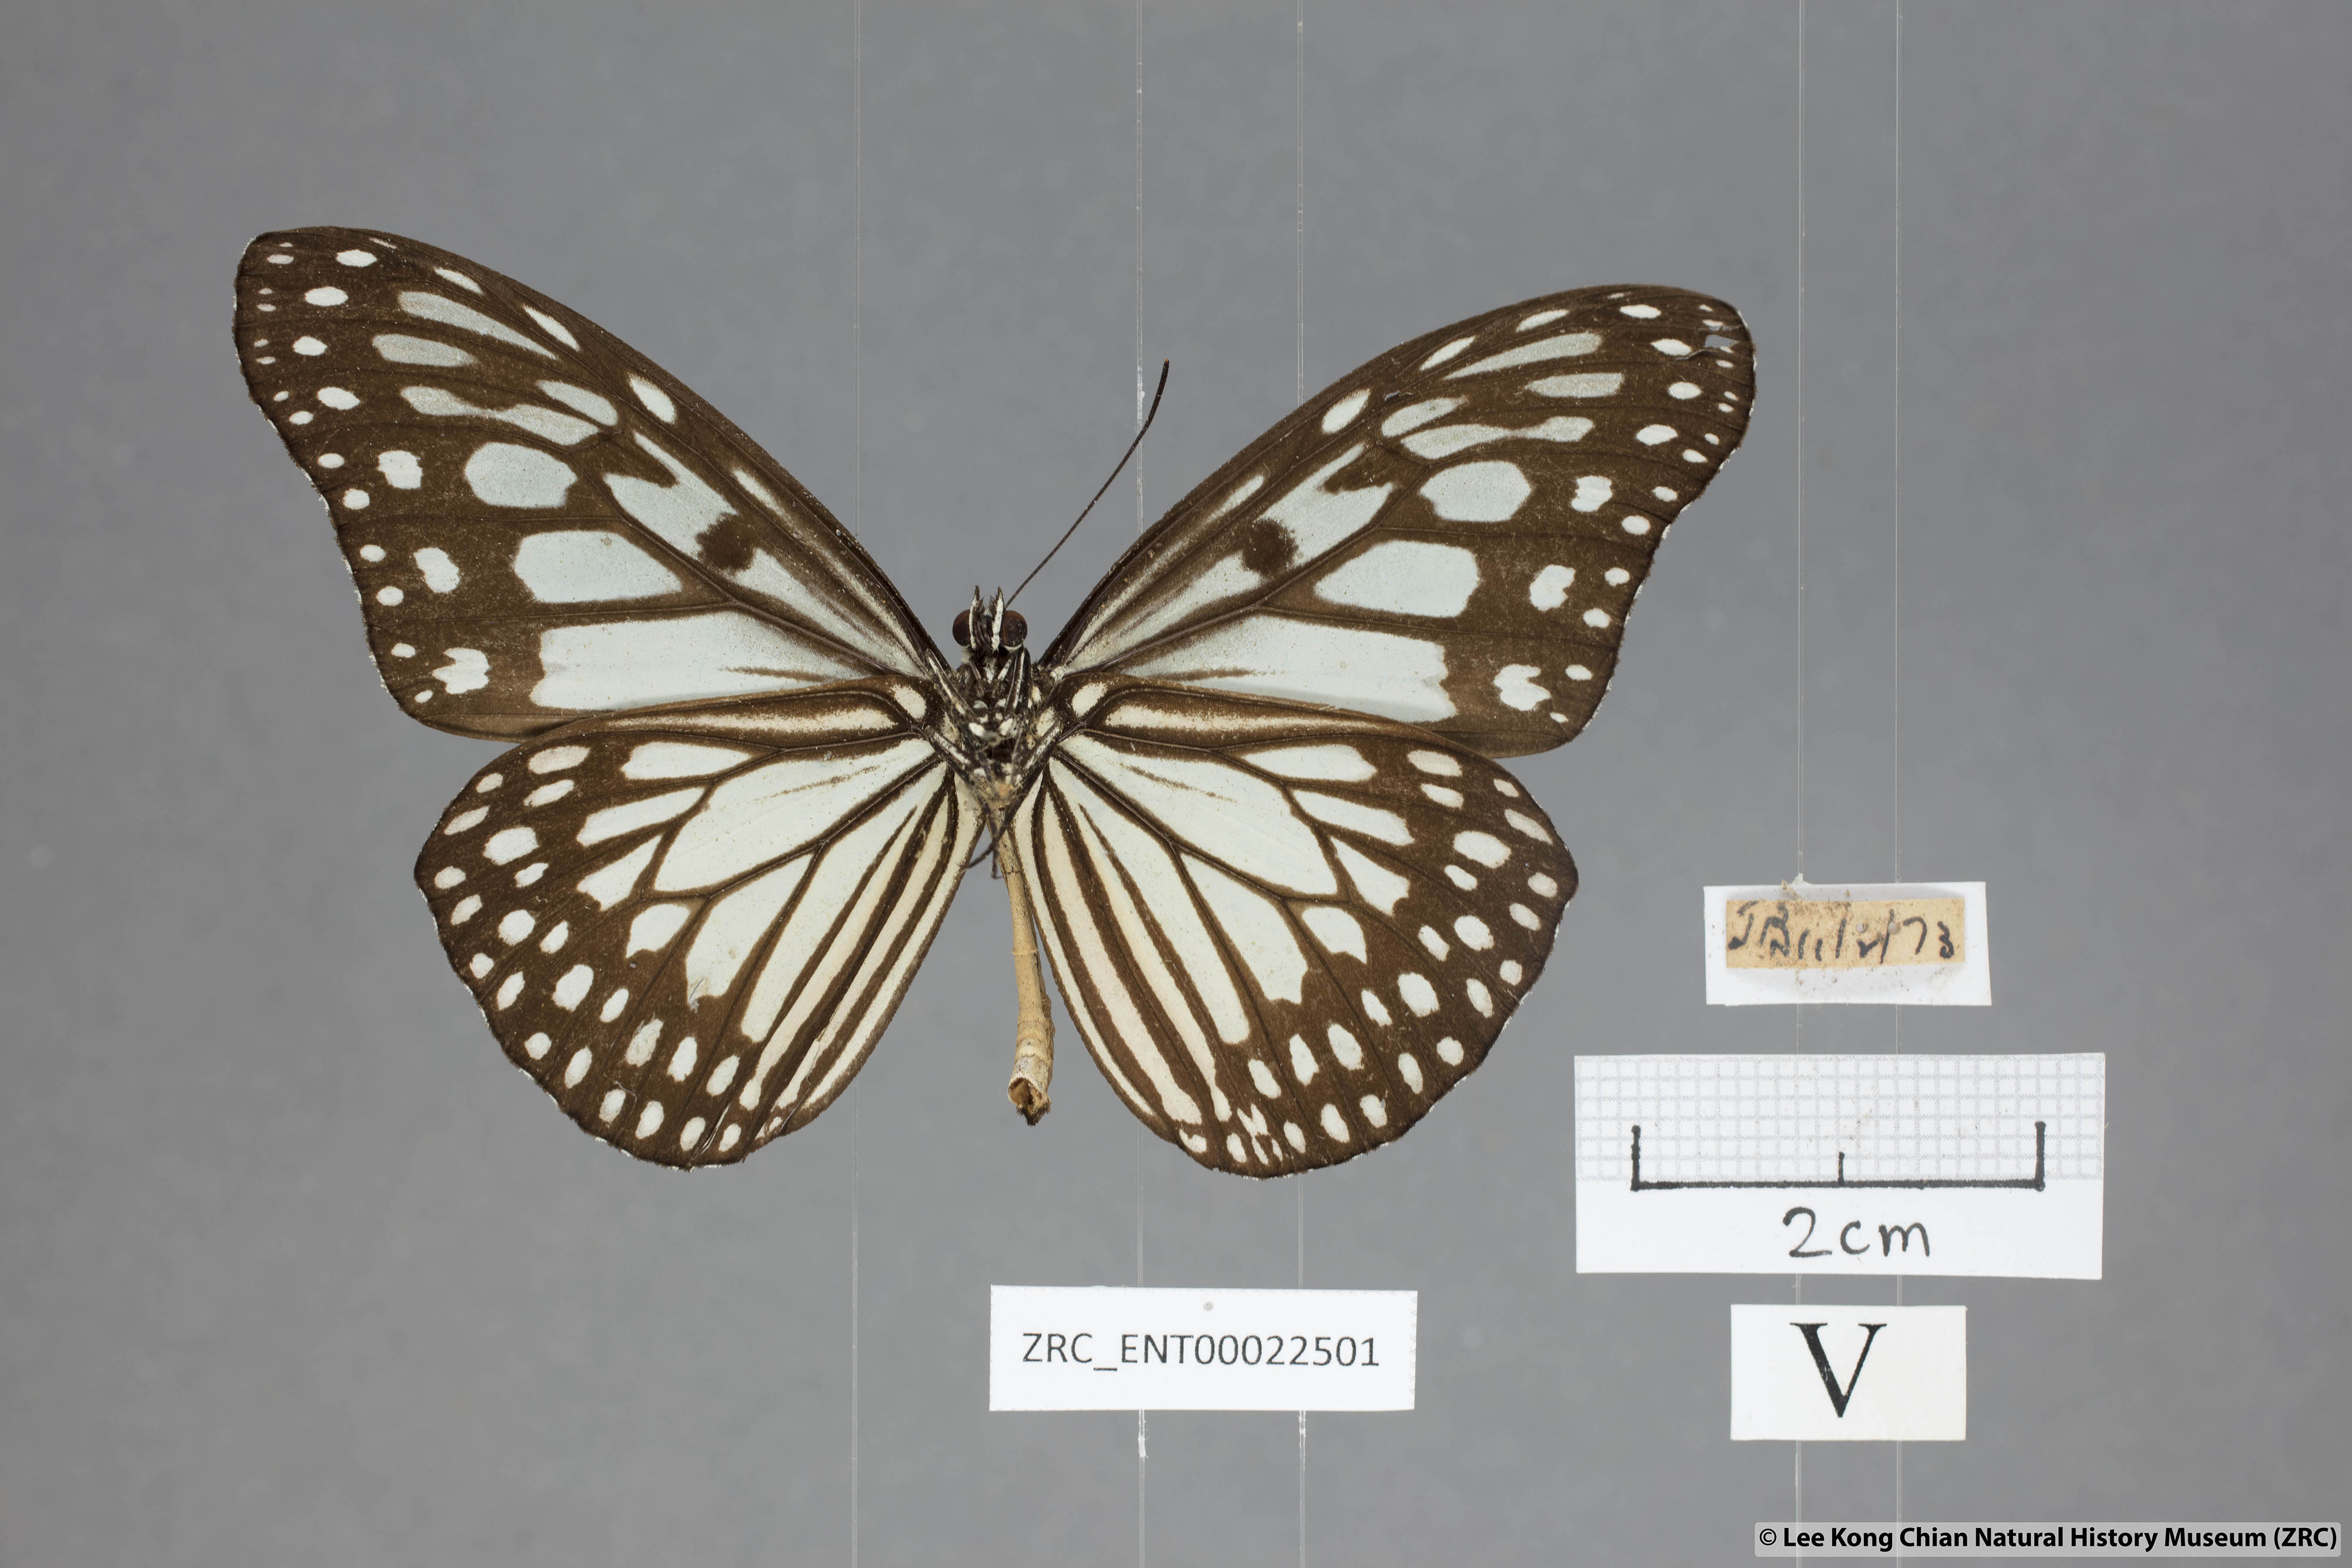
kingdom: Animalia
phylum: Arthropoda
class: Insecta
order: Lepidoptera
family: Nymphalidae
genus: Ideopsis
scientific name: Ideopsis juventa
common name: Grey glassy tiger
